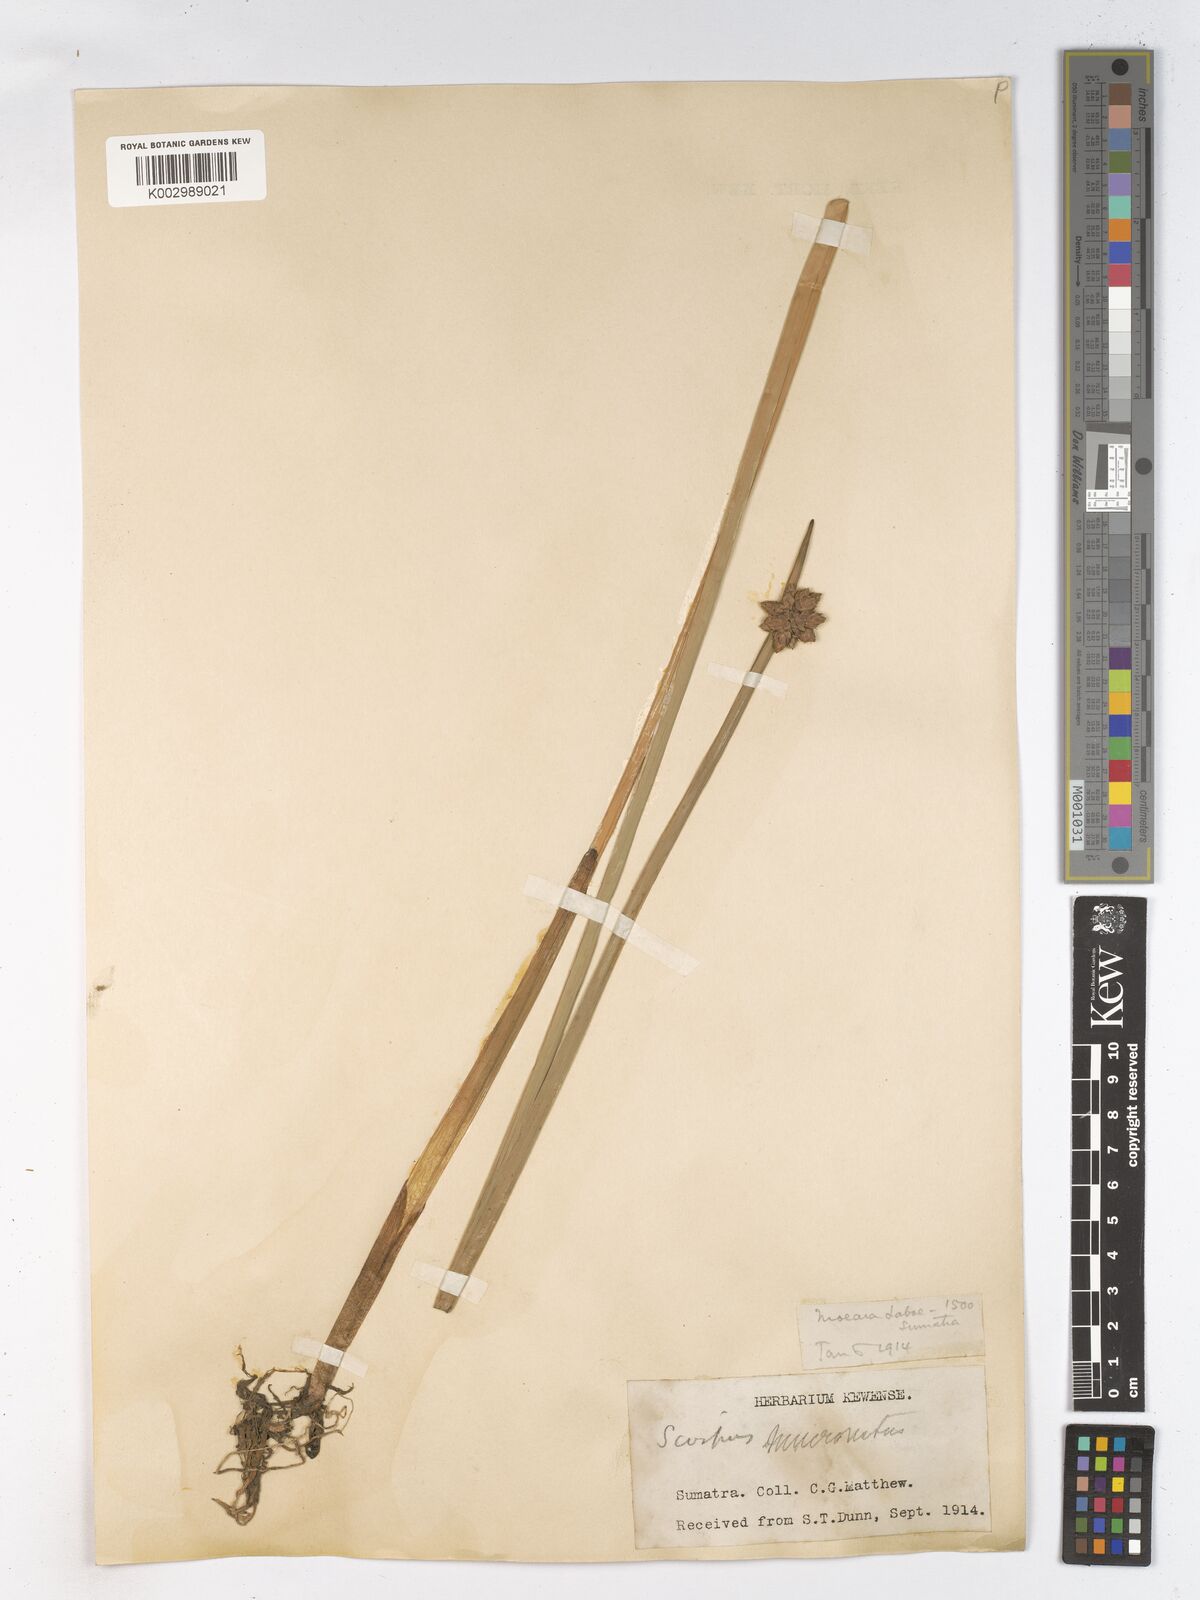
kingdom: Plantae
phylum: Tracheophyta
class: Liliopsida
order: Poales
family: Cyperaceae
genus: Schoenoplectiella
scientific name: Schoenoplectiella mucronata
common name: Bog bulrush
